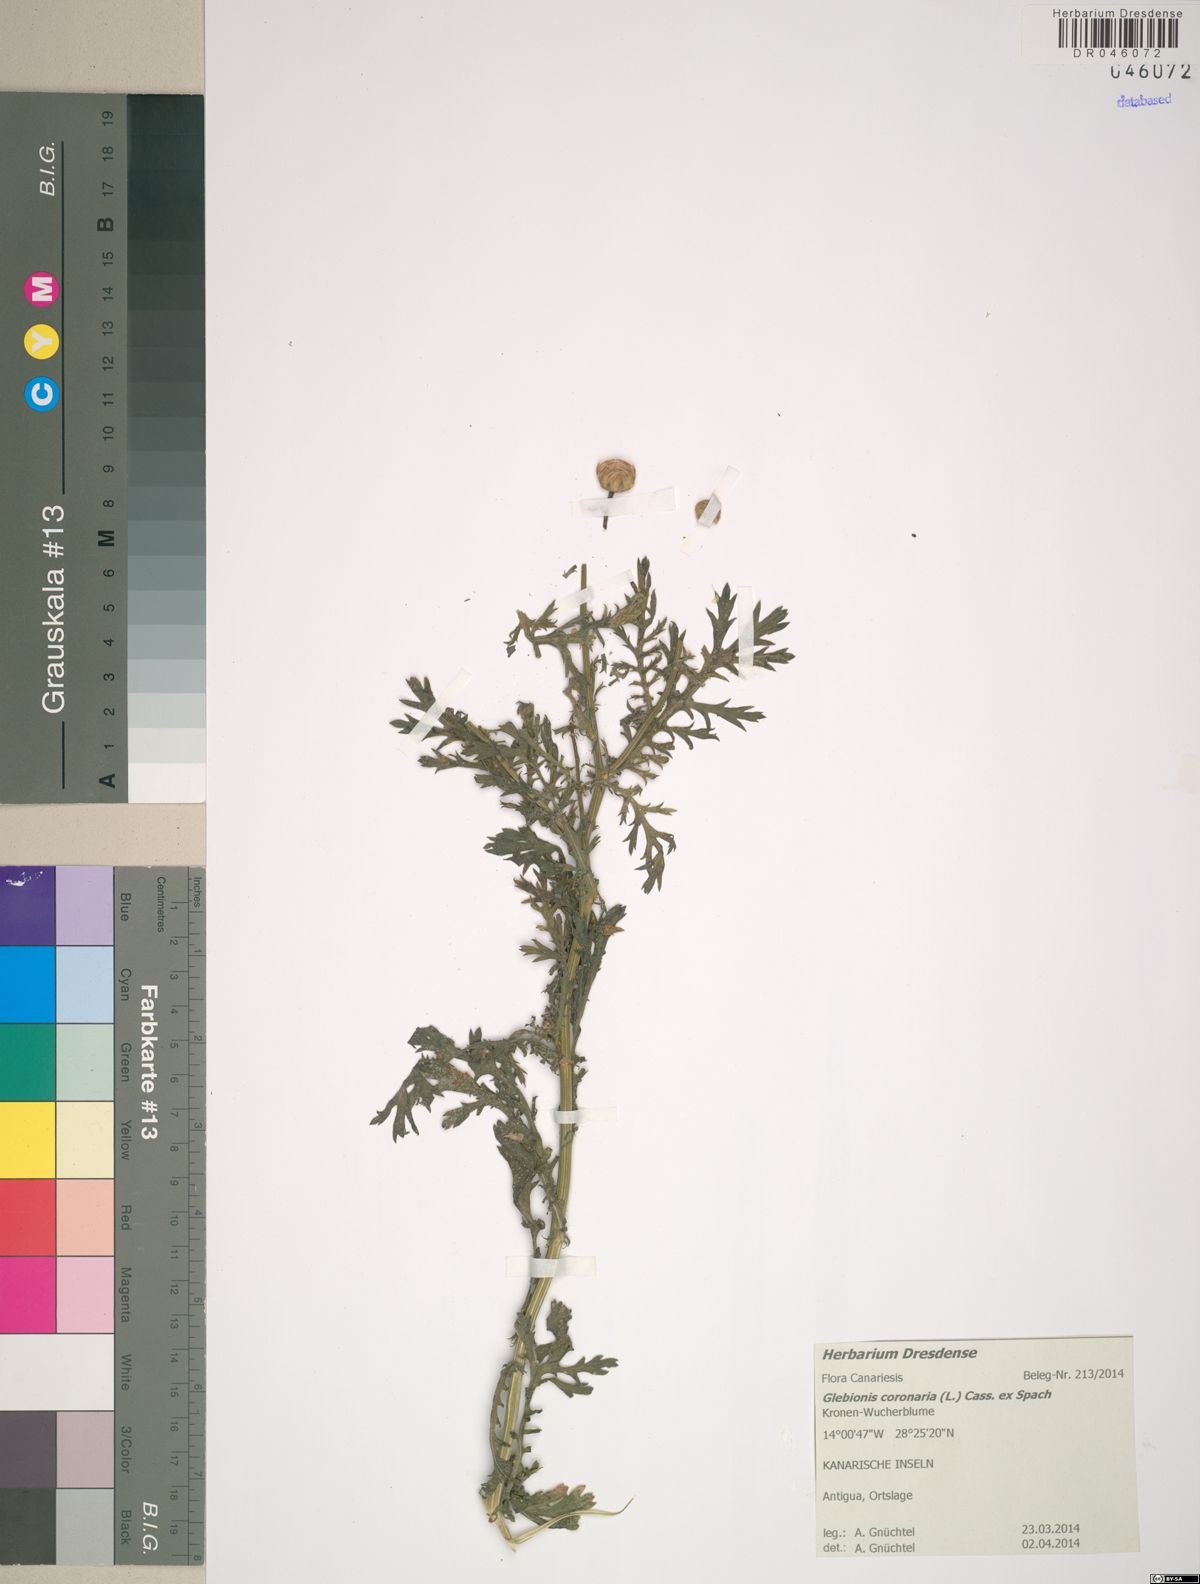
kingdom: Plantae
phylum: Tracheophyta
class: Magnoliopsida
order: Asterales
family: Asteraceae
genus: Glebionis
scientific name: Glebionis coronaria
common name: Crowndaisy
